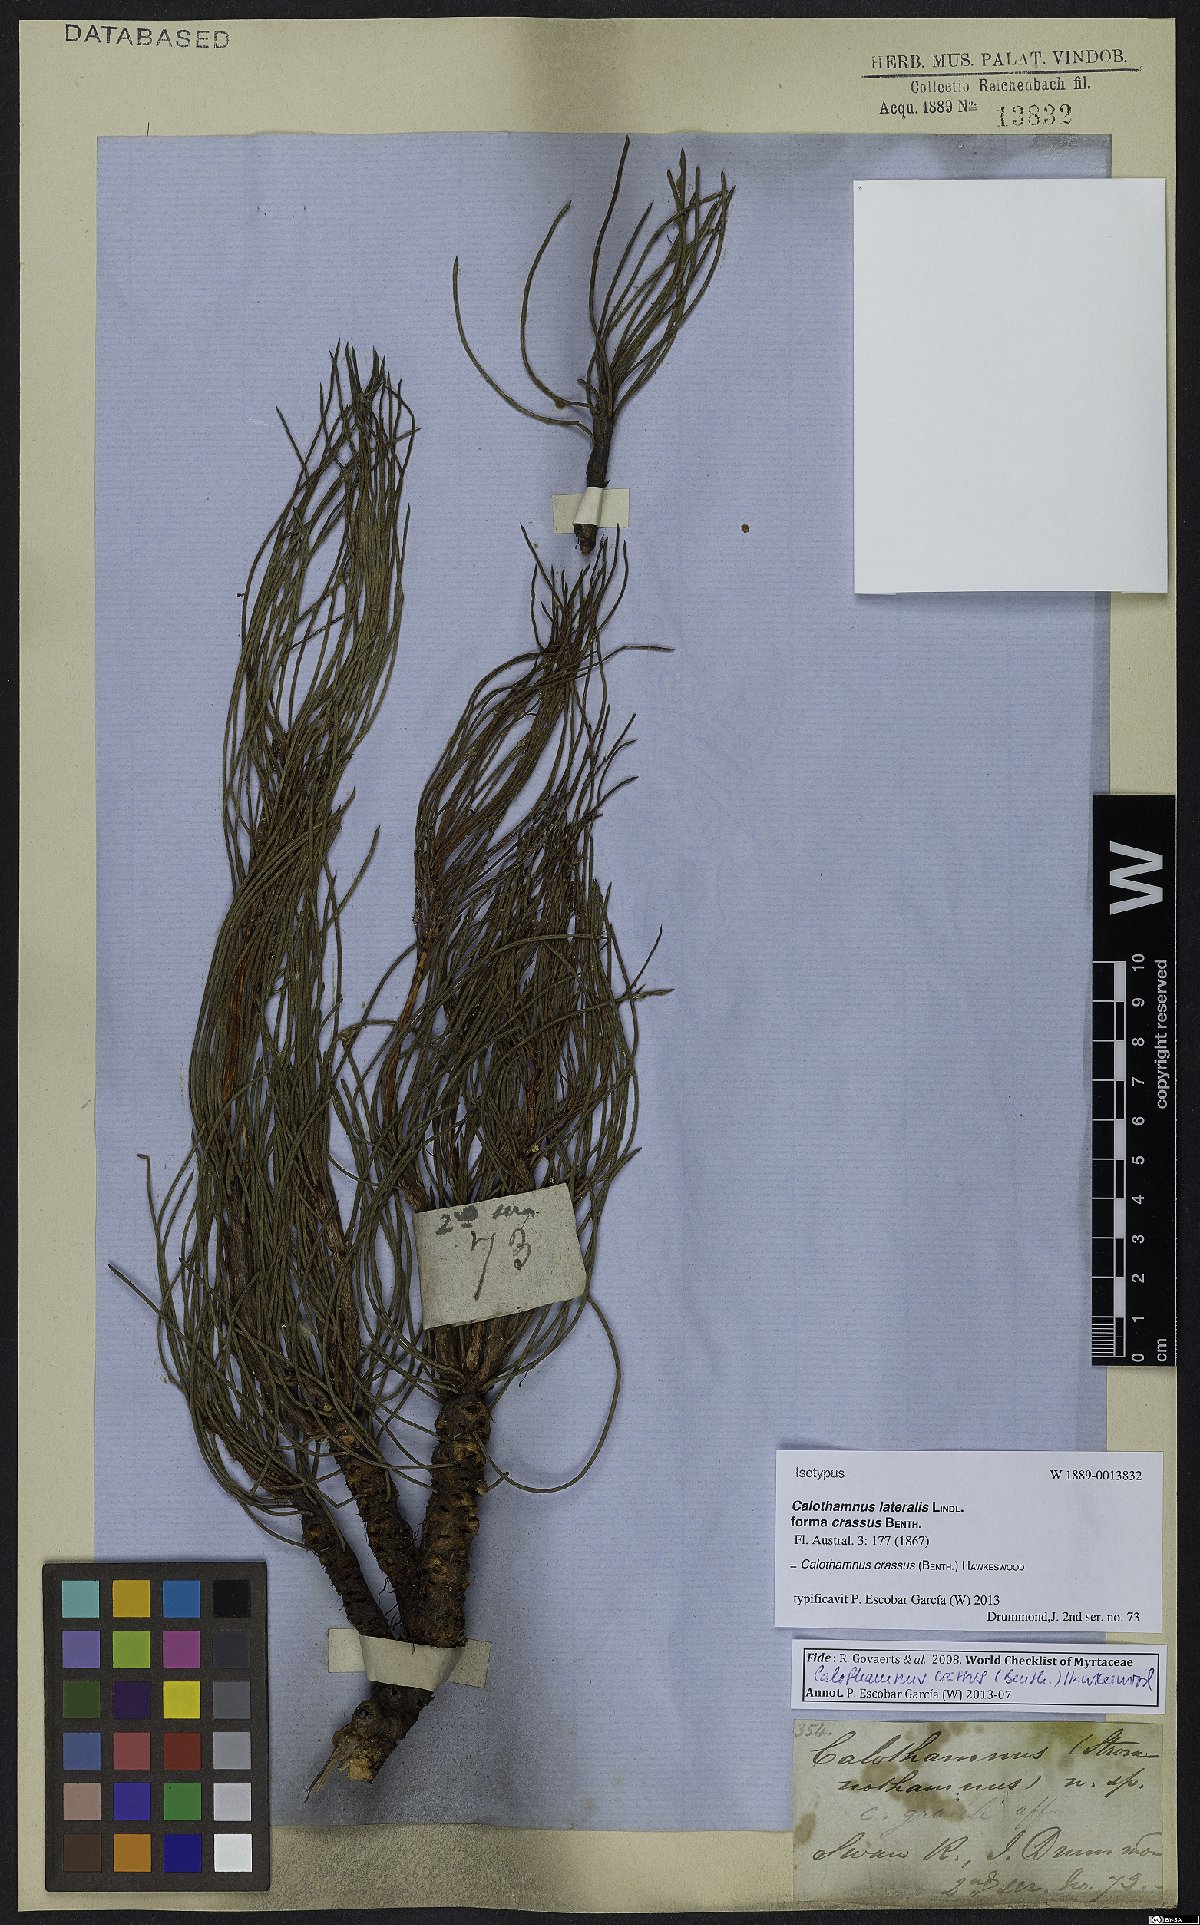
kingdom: Plantae
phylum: Tracheophyta
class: Magnoliopsida
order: Myrtales
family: Myrtaceae
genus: Melaleuca
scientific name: Melaleuca alilateralis
